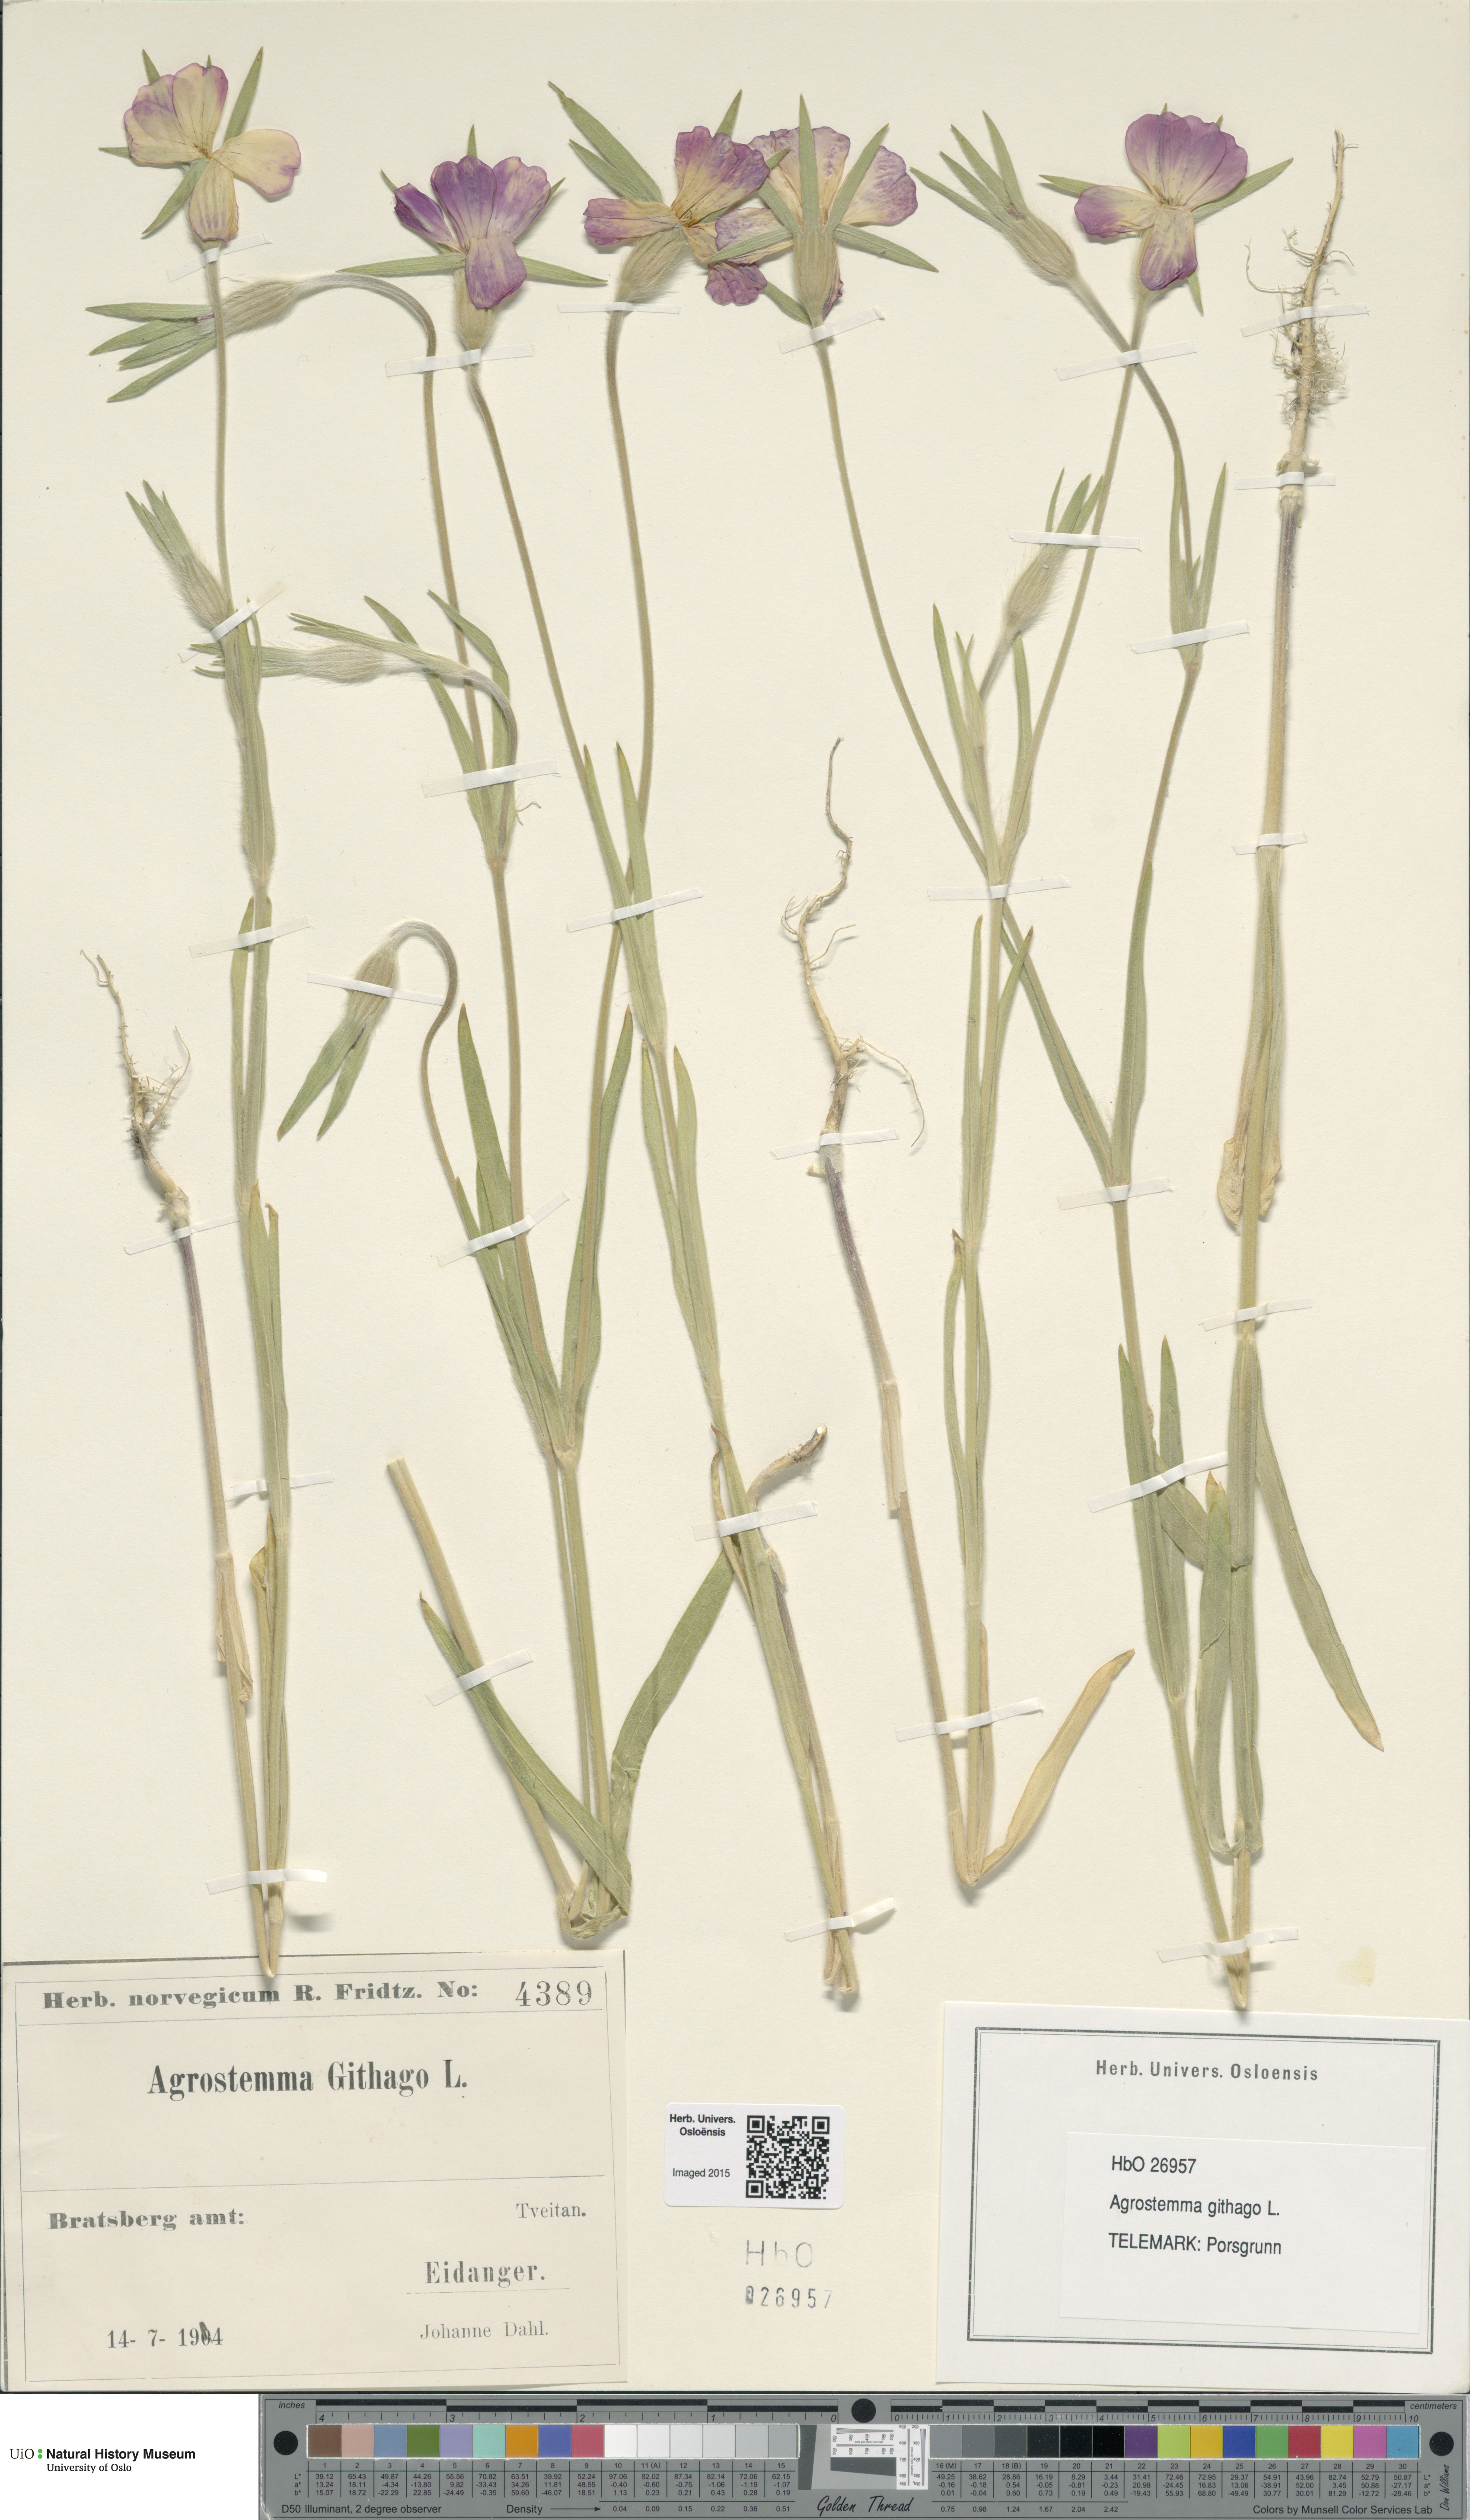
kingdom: Plantae
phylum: Tracheophyta
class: Magnoliopsida
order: Caryophyllales
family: Caryophyllaceae
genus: Agrostemma
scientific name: Agrostemma githago
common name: Common corncockle
